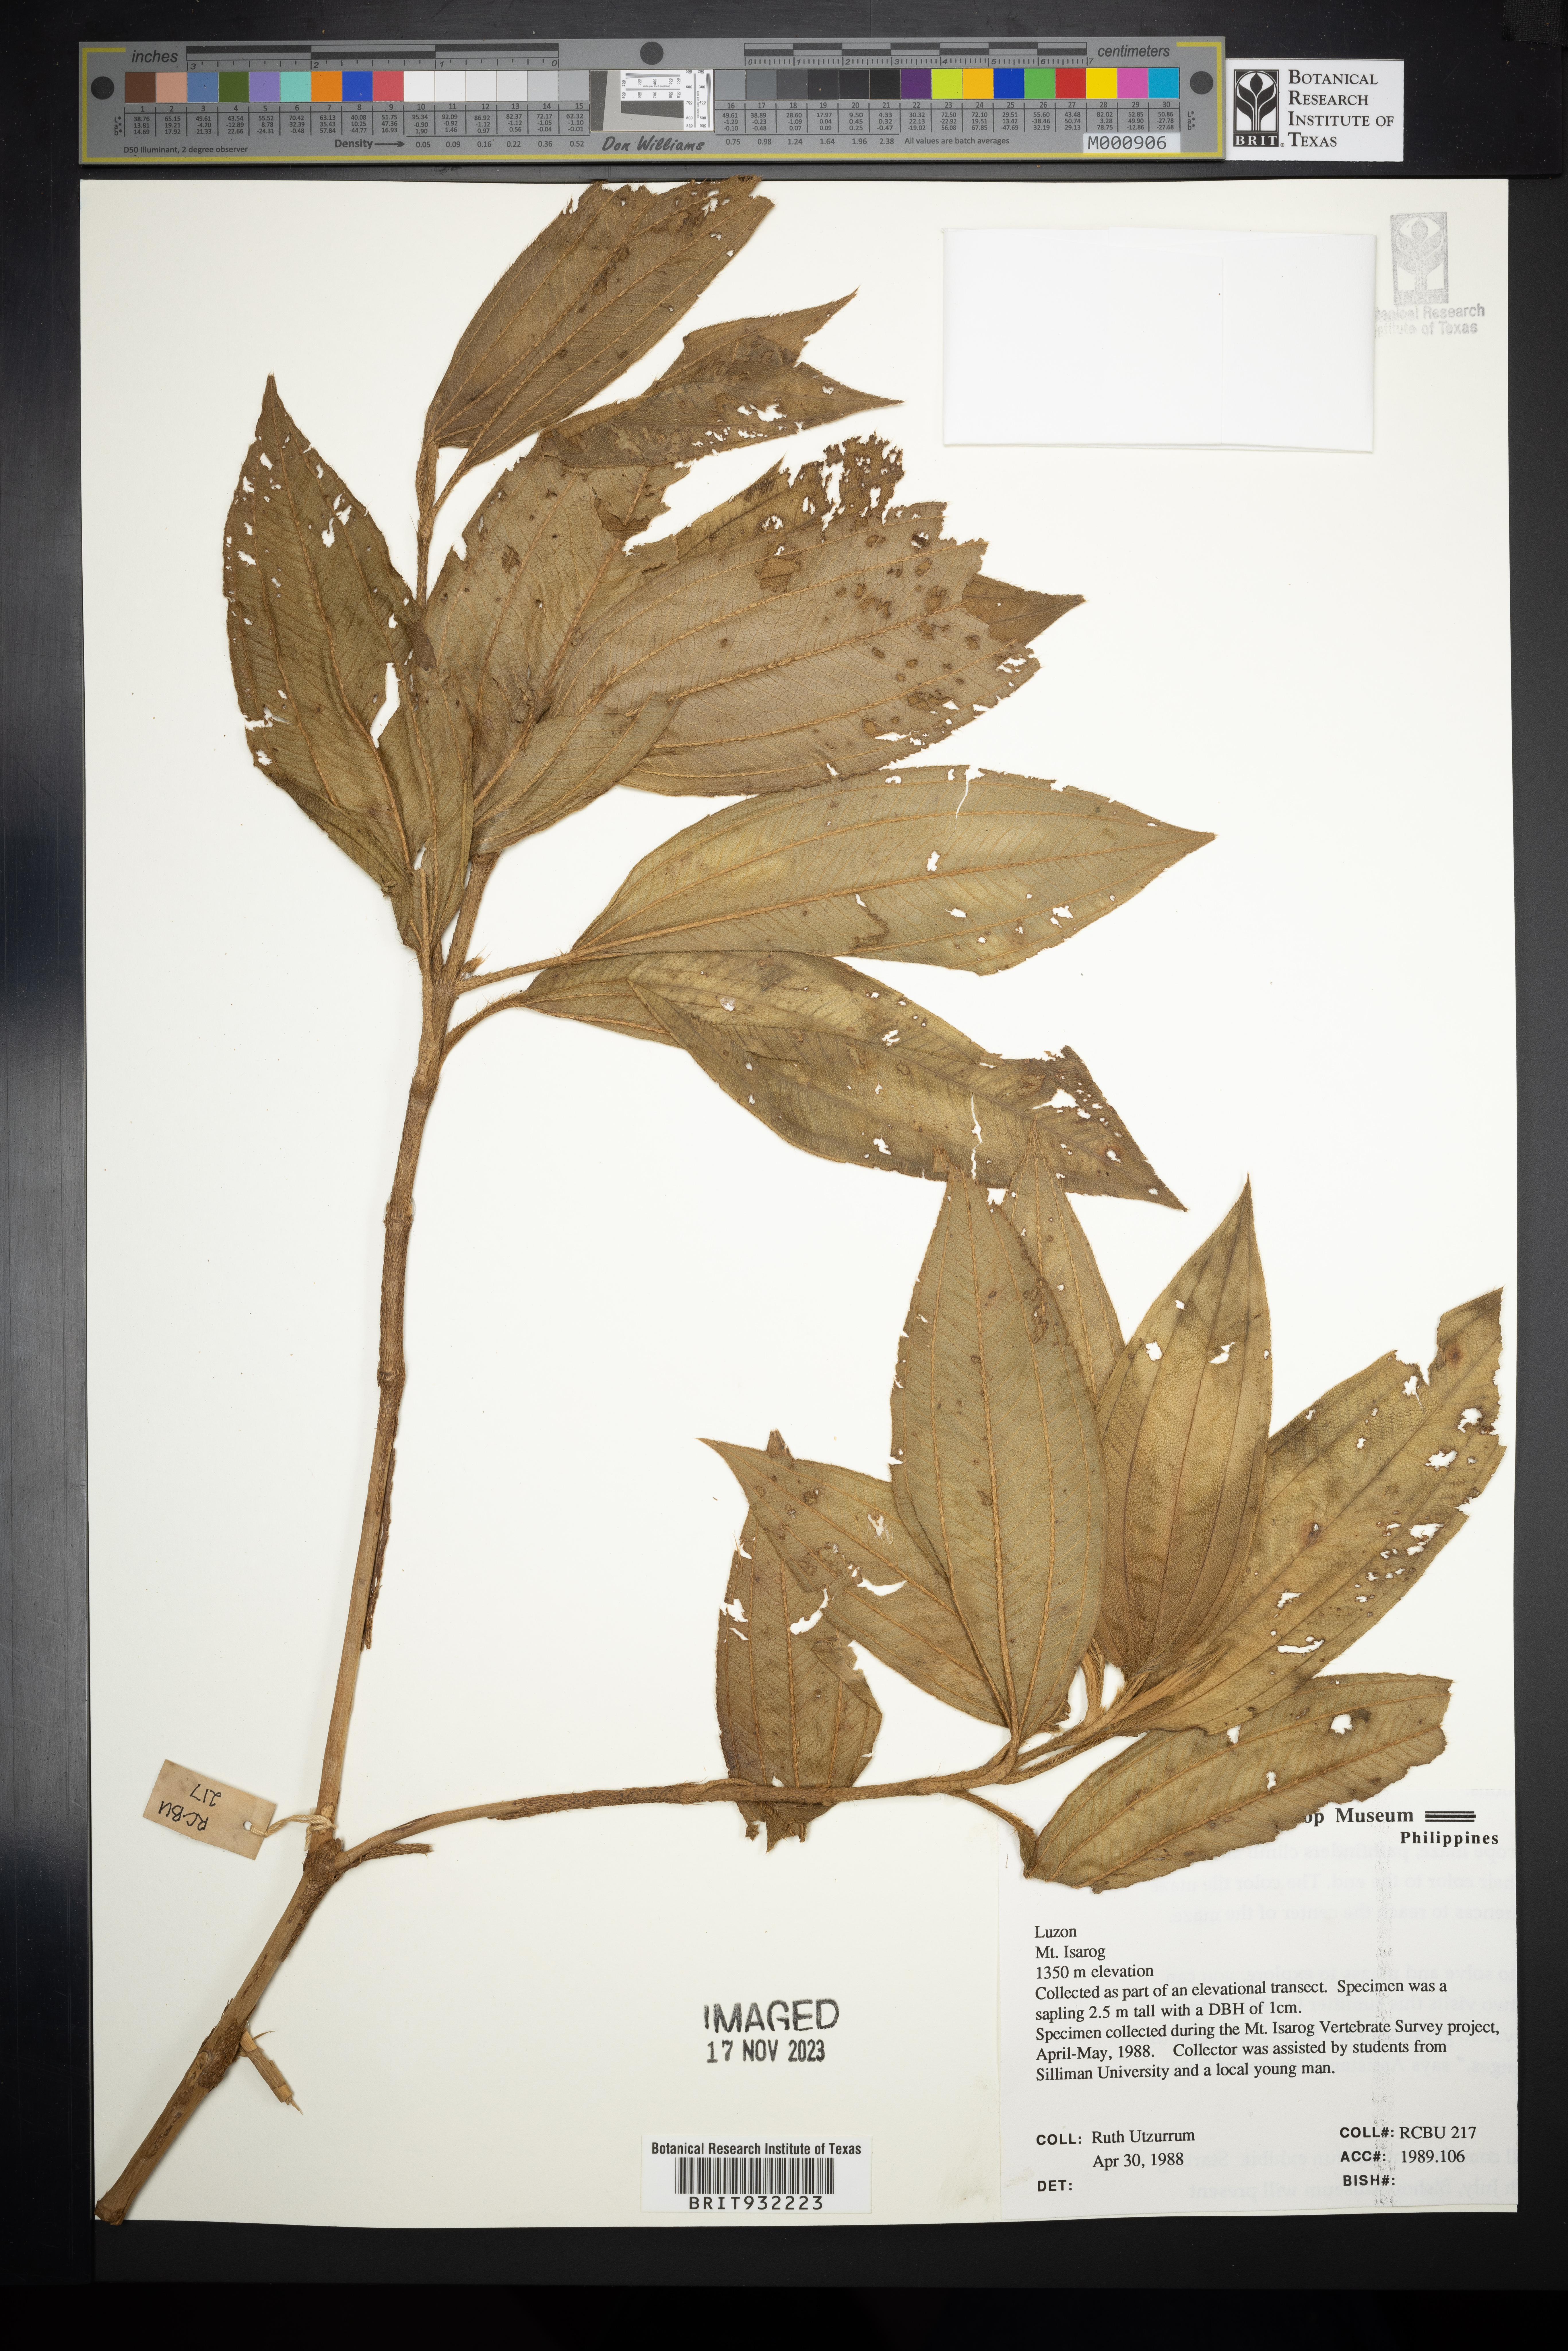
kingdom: Plantae
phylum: Tracheophyta
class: Magnoliopsida
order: Myrtales
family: Melastomataceae
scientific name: Melastomataceae
